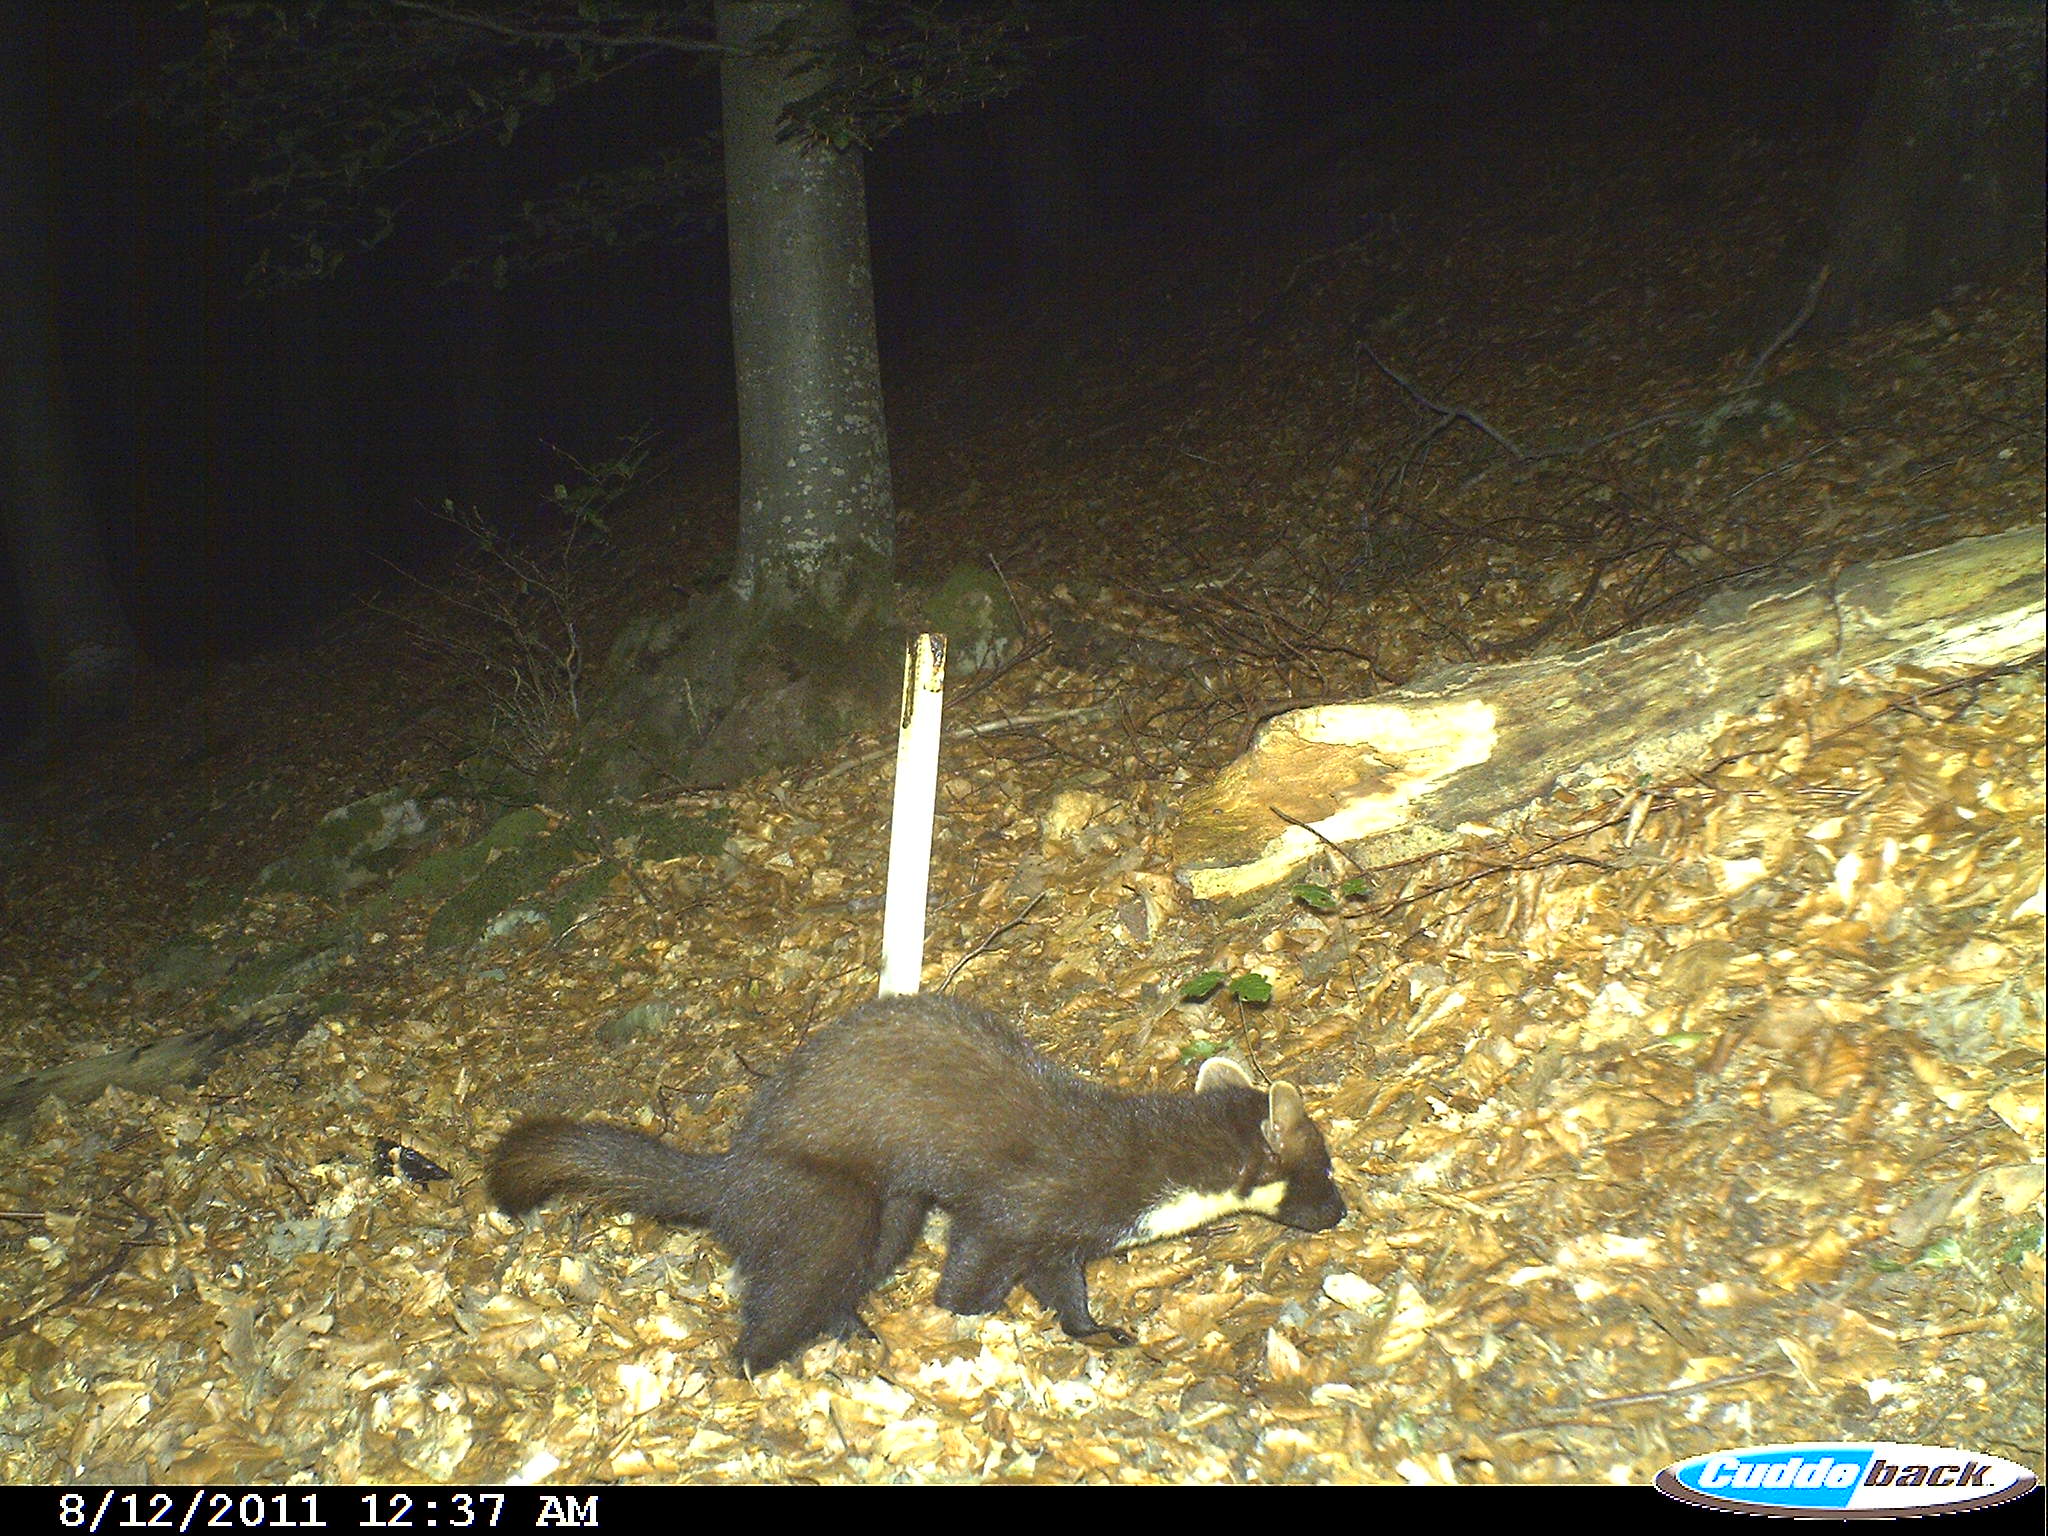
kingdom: Animalia
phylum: Chordata
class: Mammalia
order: Carnivora
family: Mustelidae
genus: Martes
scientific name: Martes martes
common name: European pine marten
